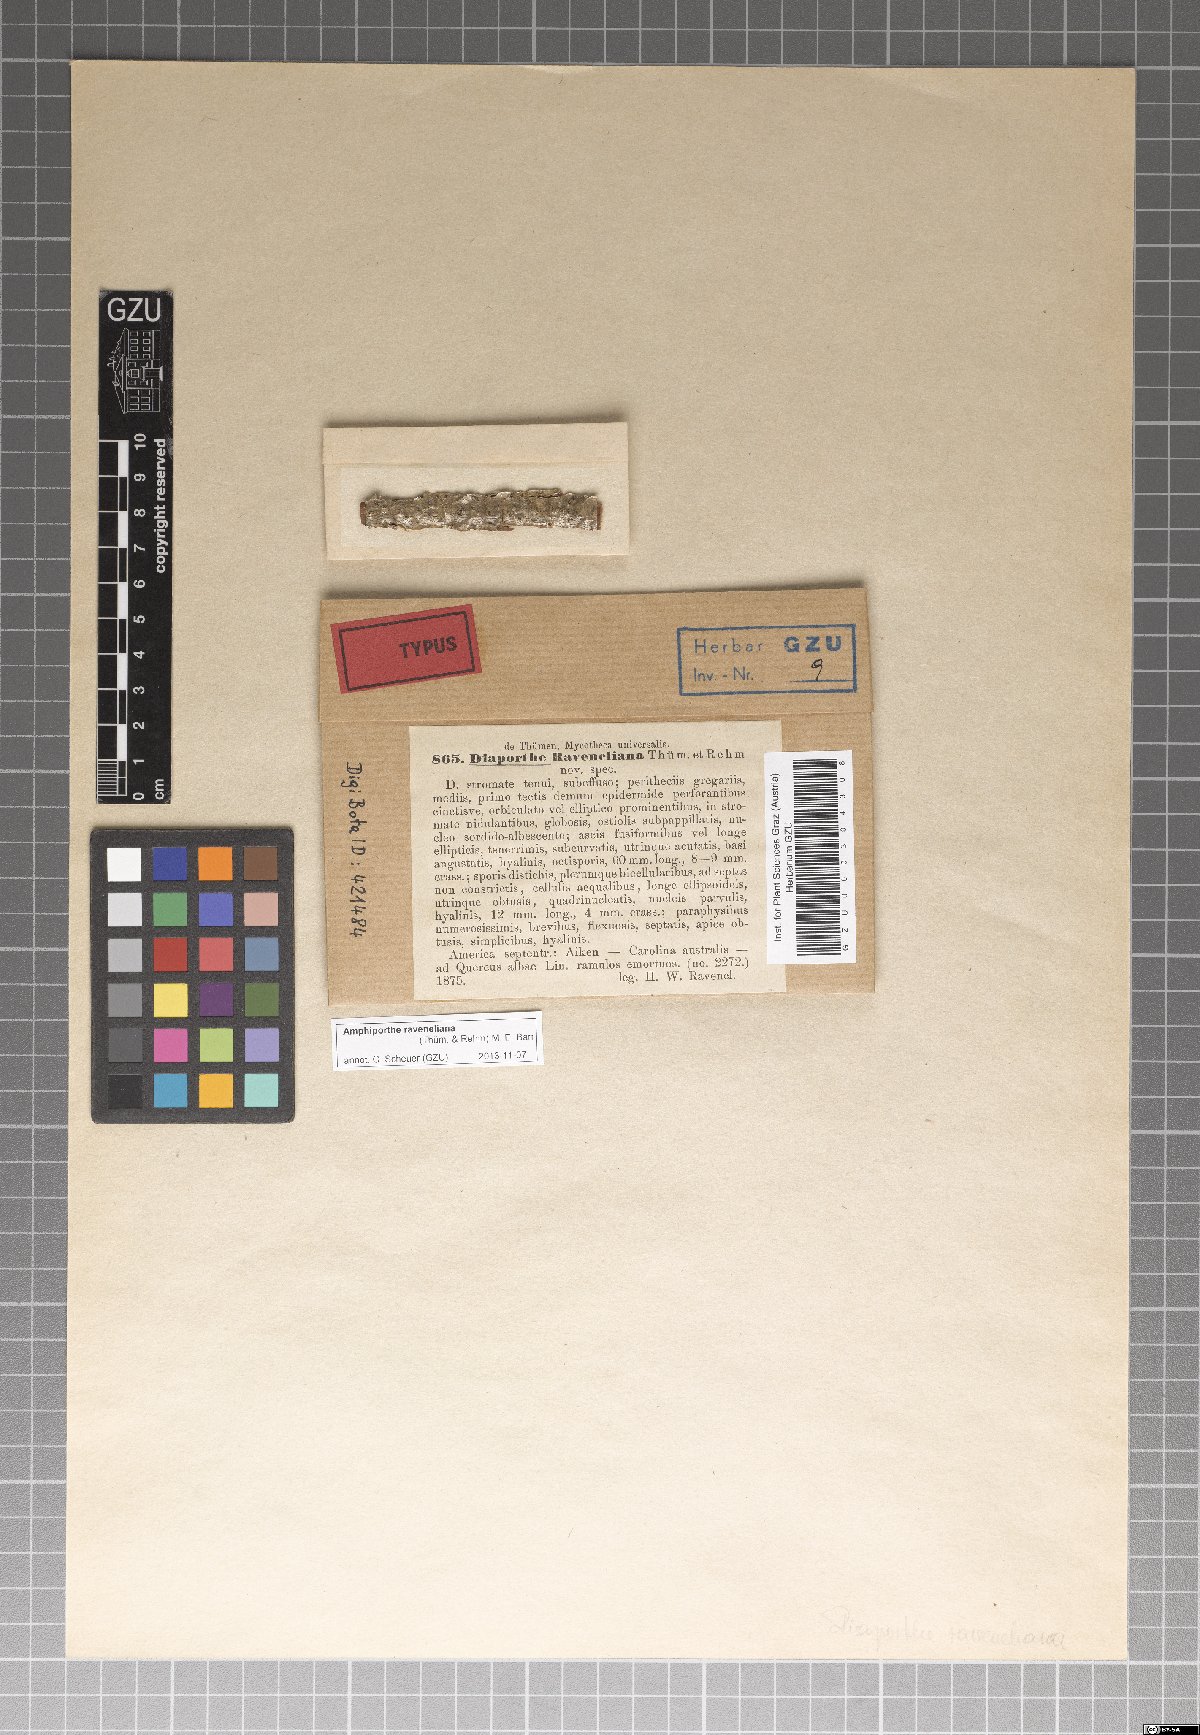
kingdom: Fungi
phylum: Ascomycota
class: Sordariomycetes
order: Diaporthales
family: Valsaceae
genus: Amphiporthe
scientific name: Amphiporthe raveneliana
